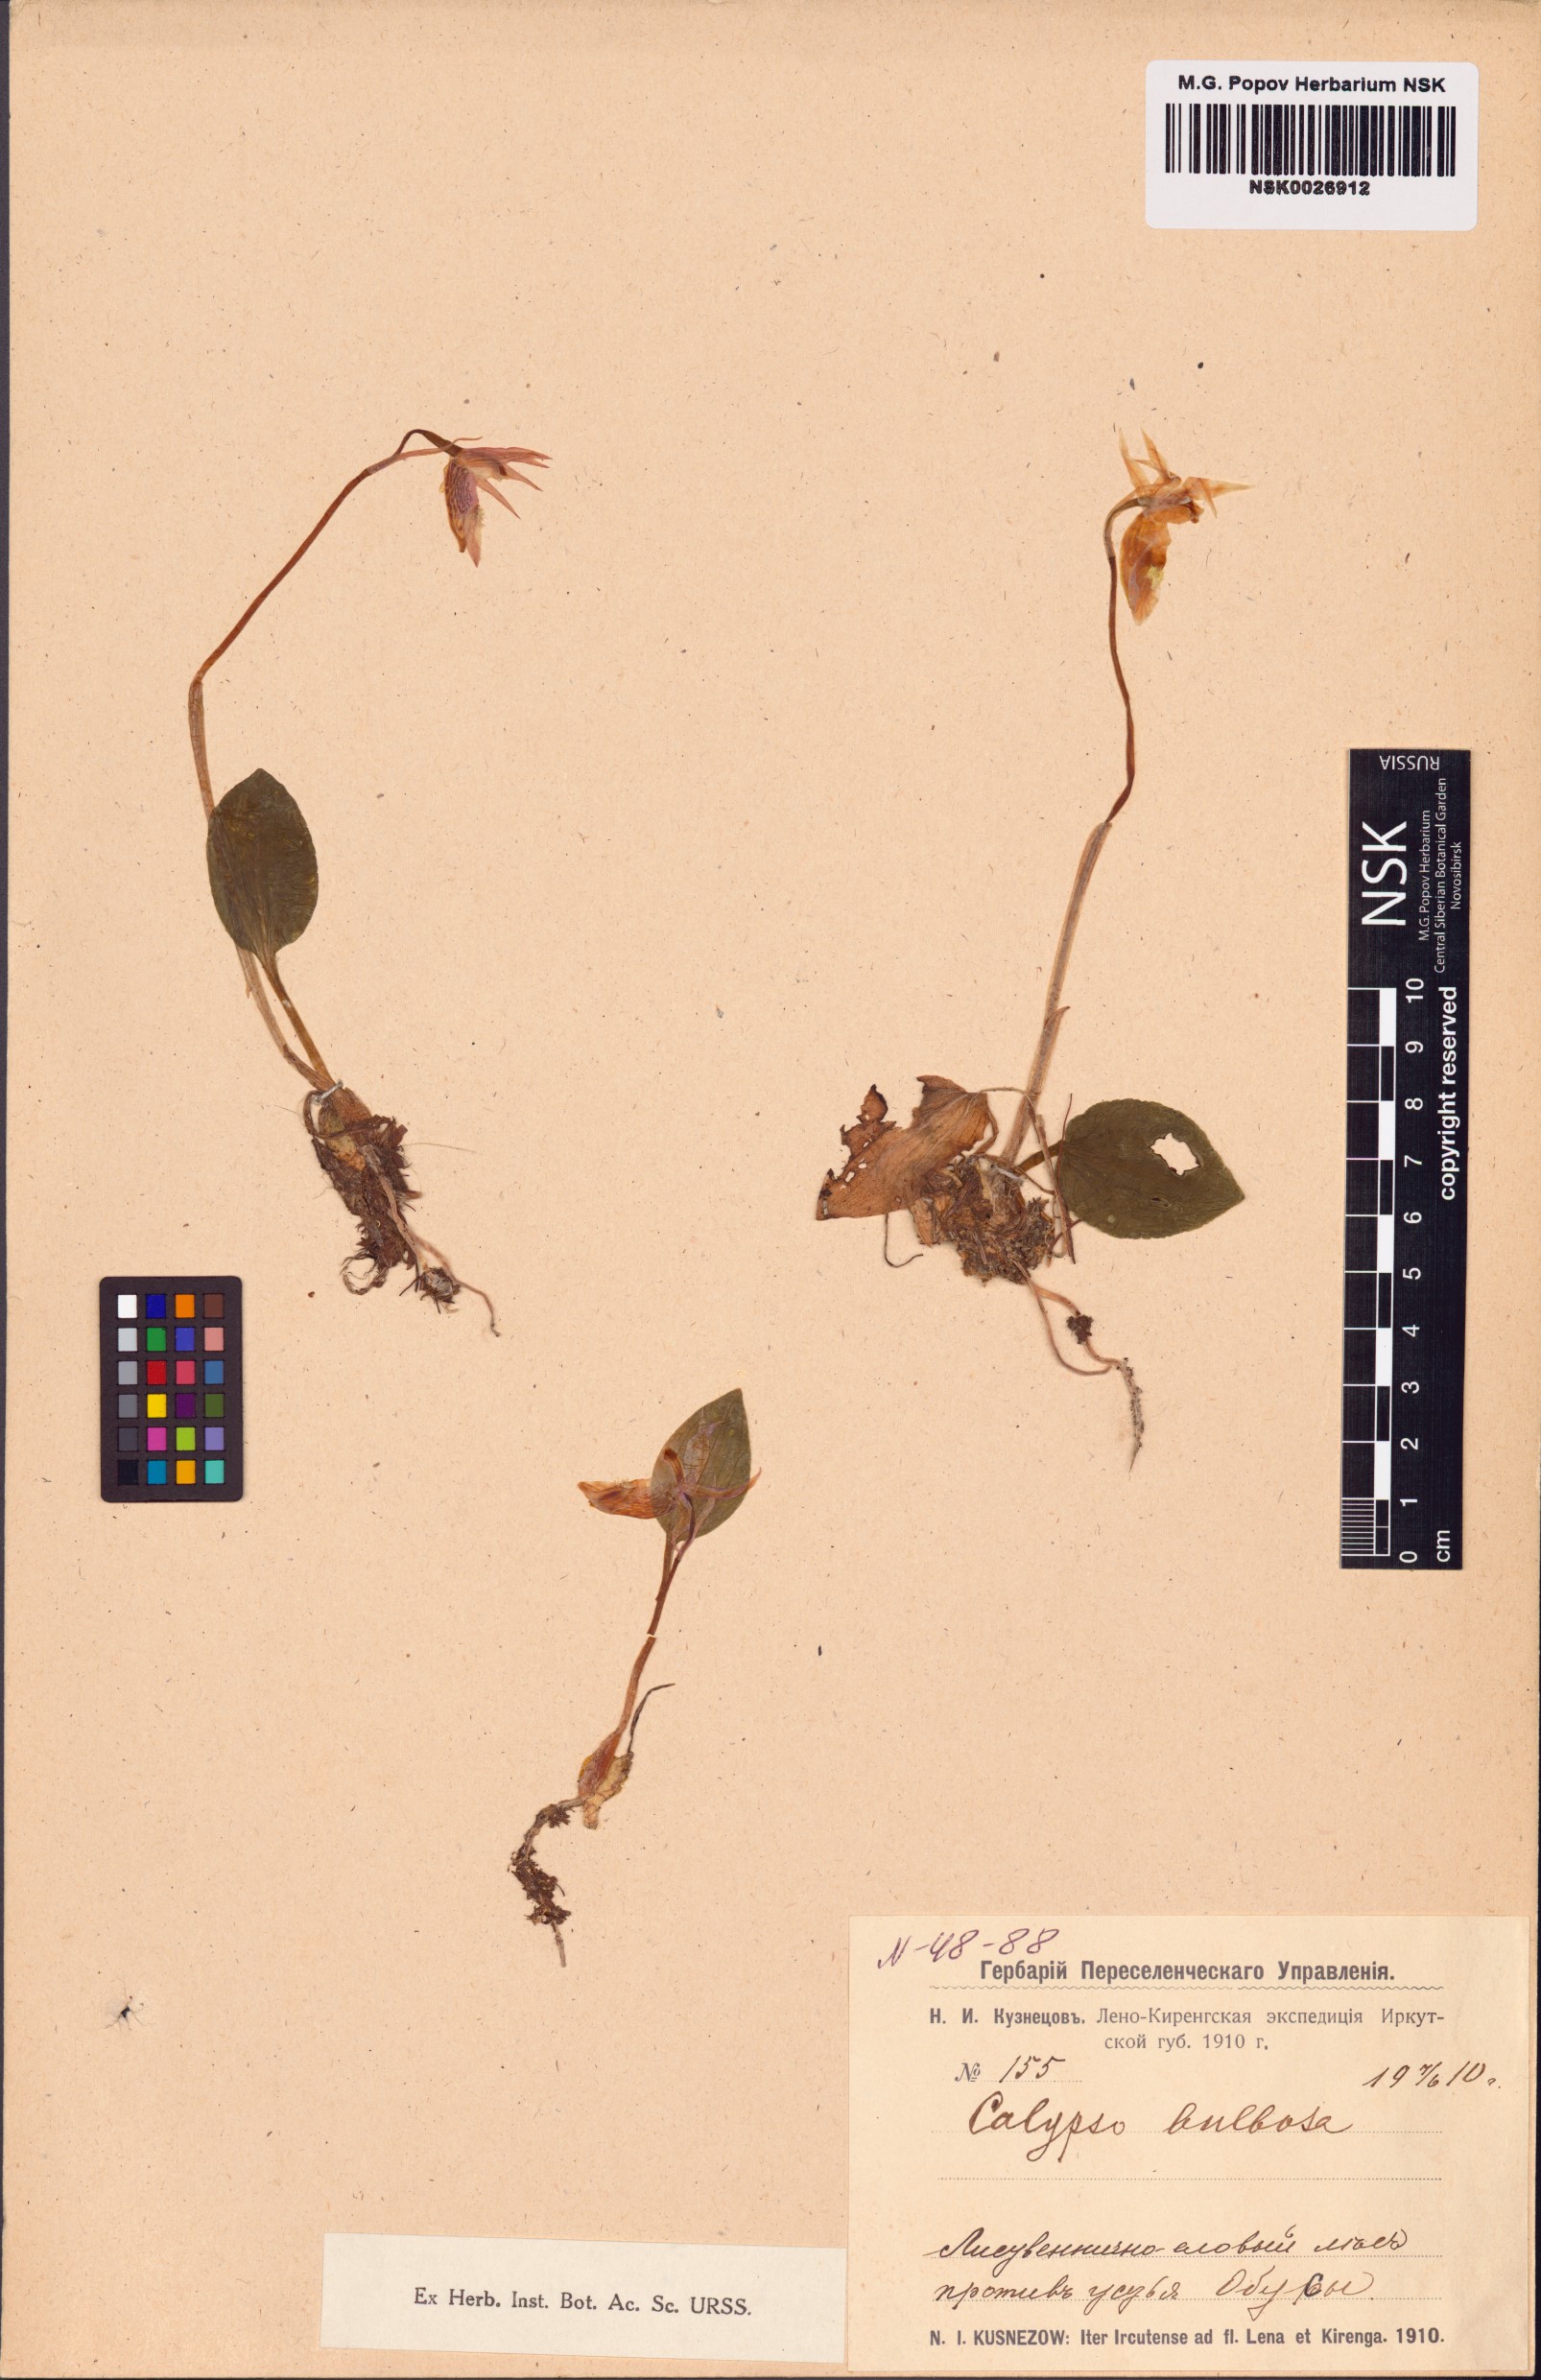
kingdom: Plantae
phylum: Tracheophyta
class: Liliopsida
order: Asparagales
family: Orchidaceae
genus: Calypso
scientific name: Calypso bulbosa
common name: Calypso
